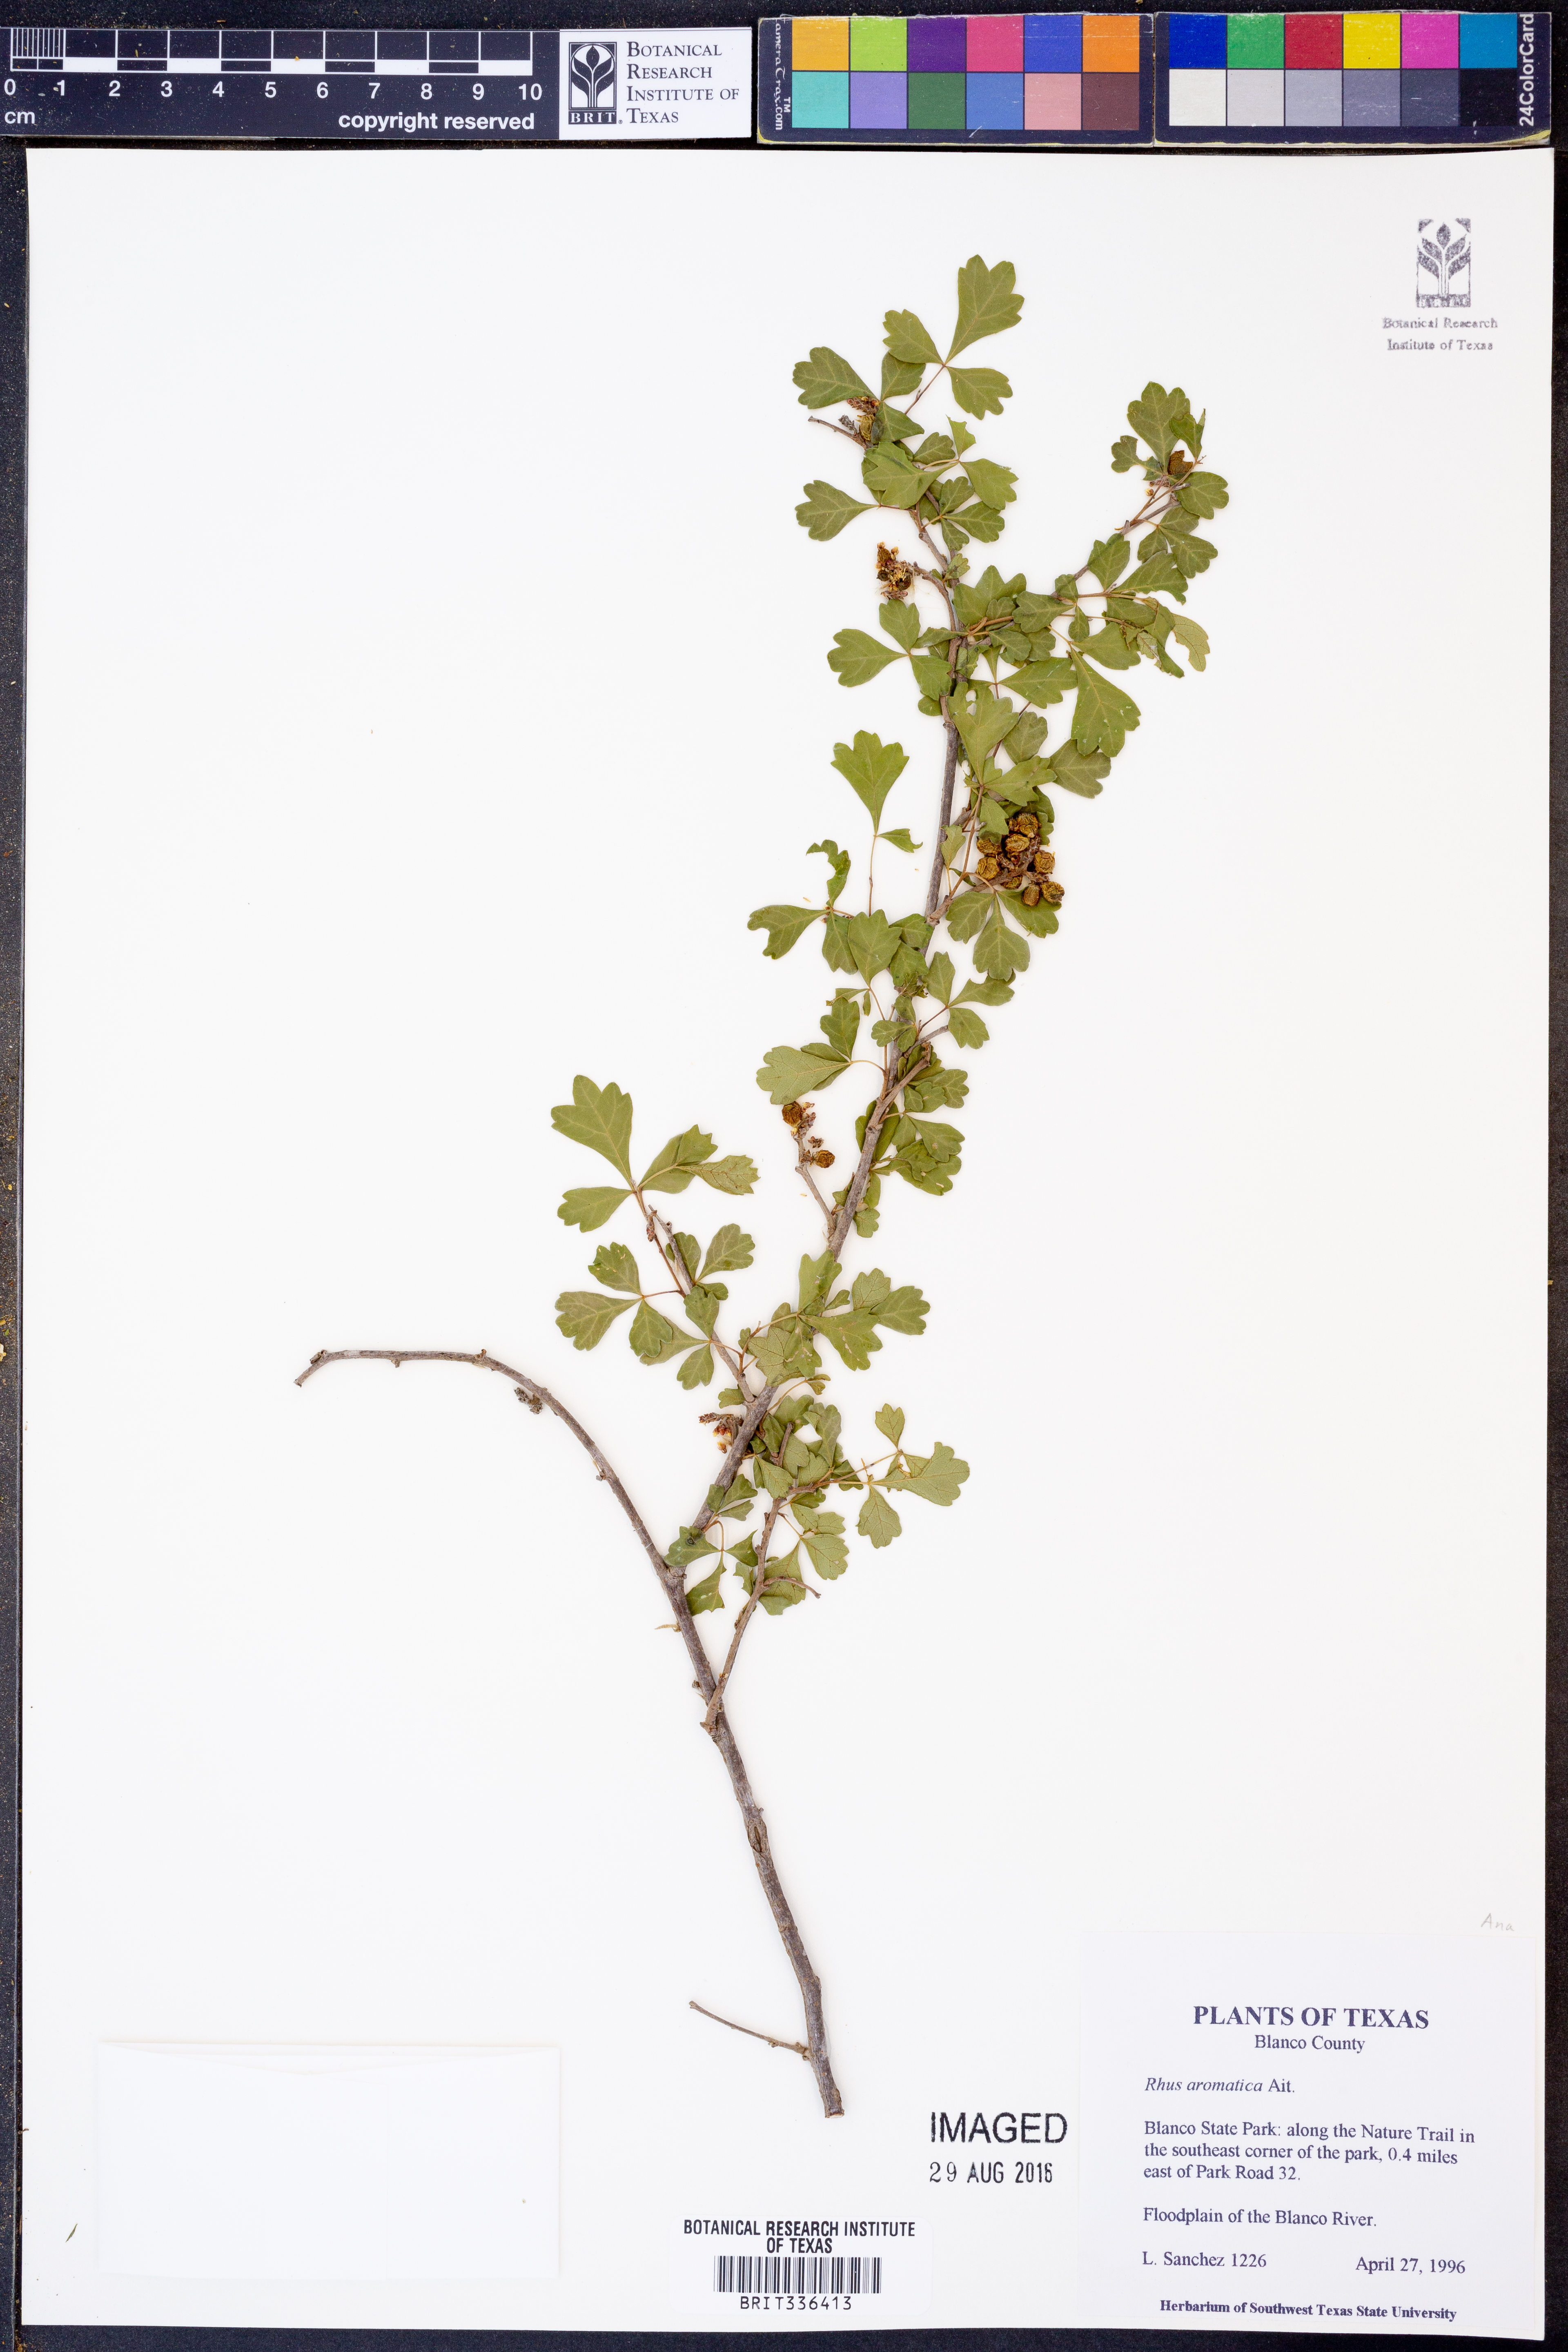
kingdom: Plantae
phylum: Tracheophyta
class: Magnoliopsida
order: Sapindales
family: Anacardiaceae
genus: Rhus
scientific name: Rhus aromatica
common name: Aromatic sumac
